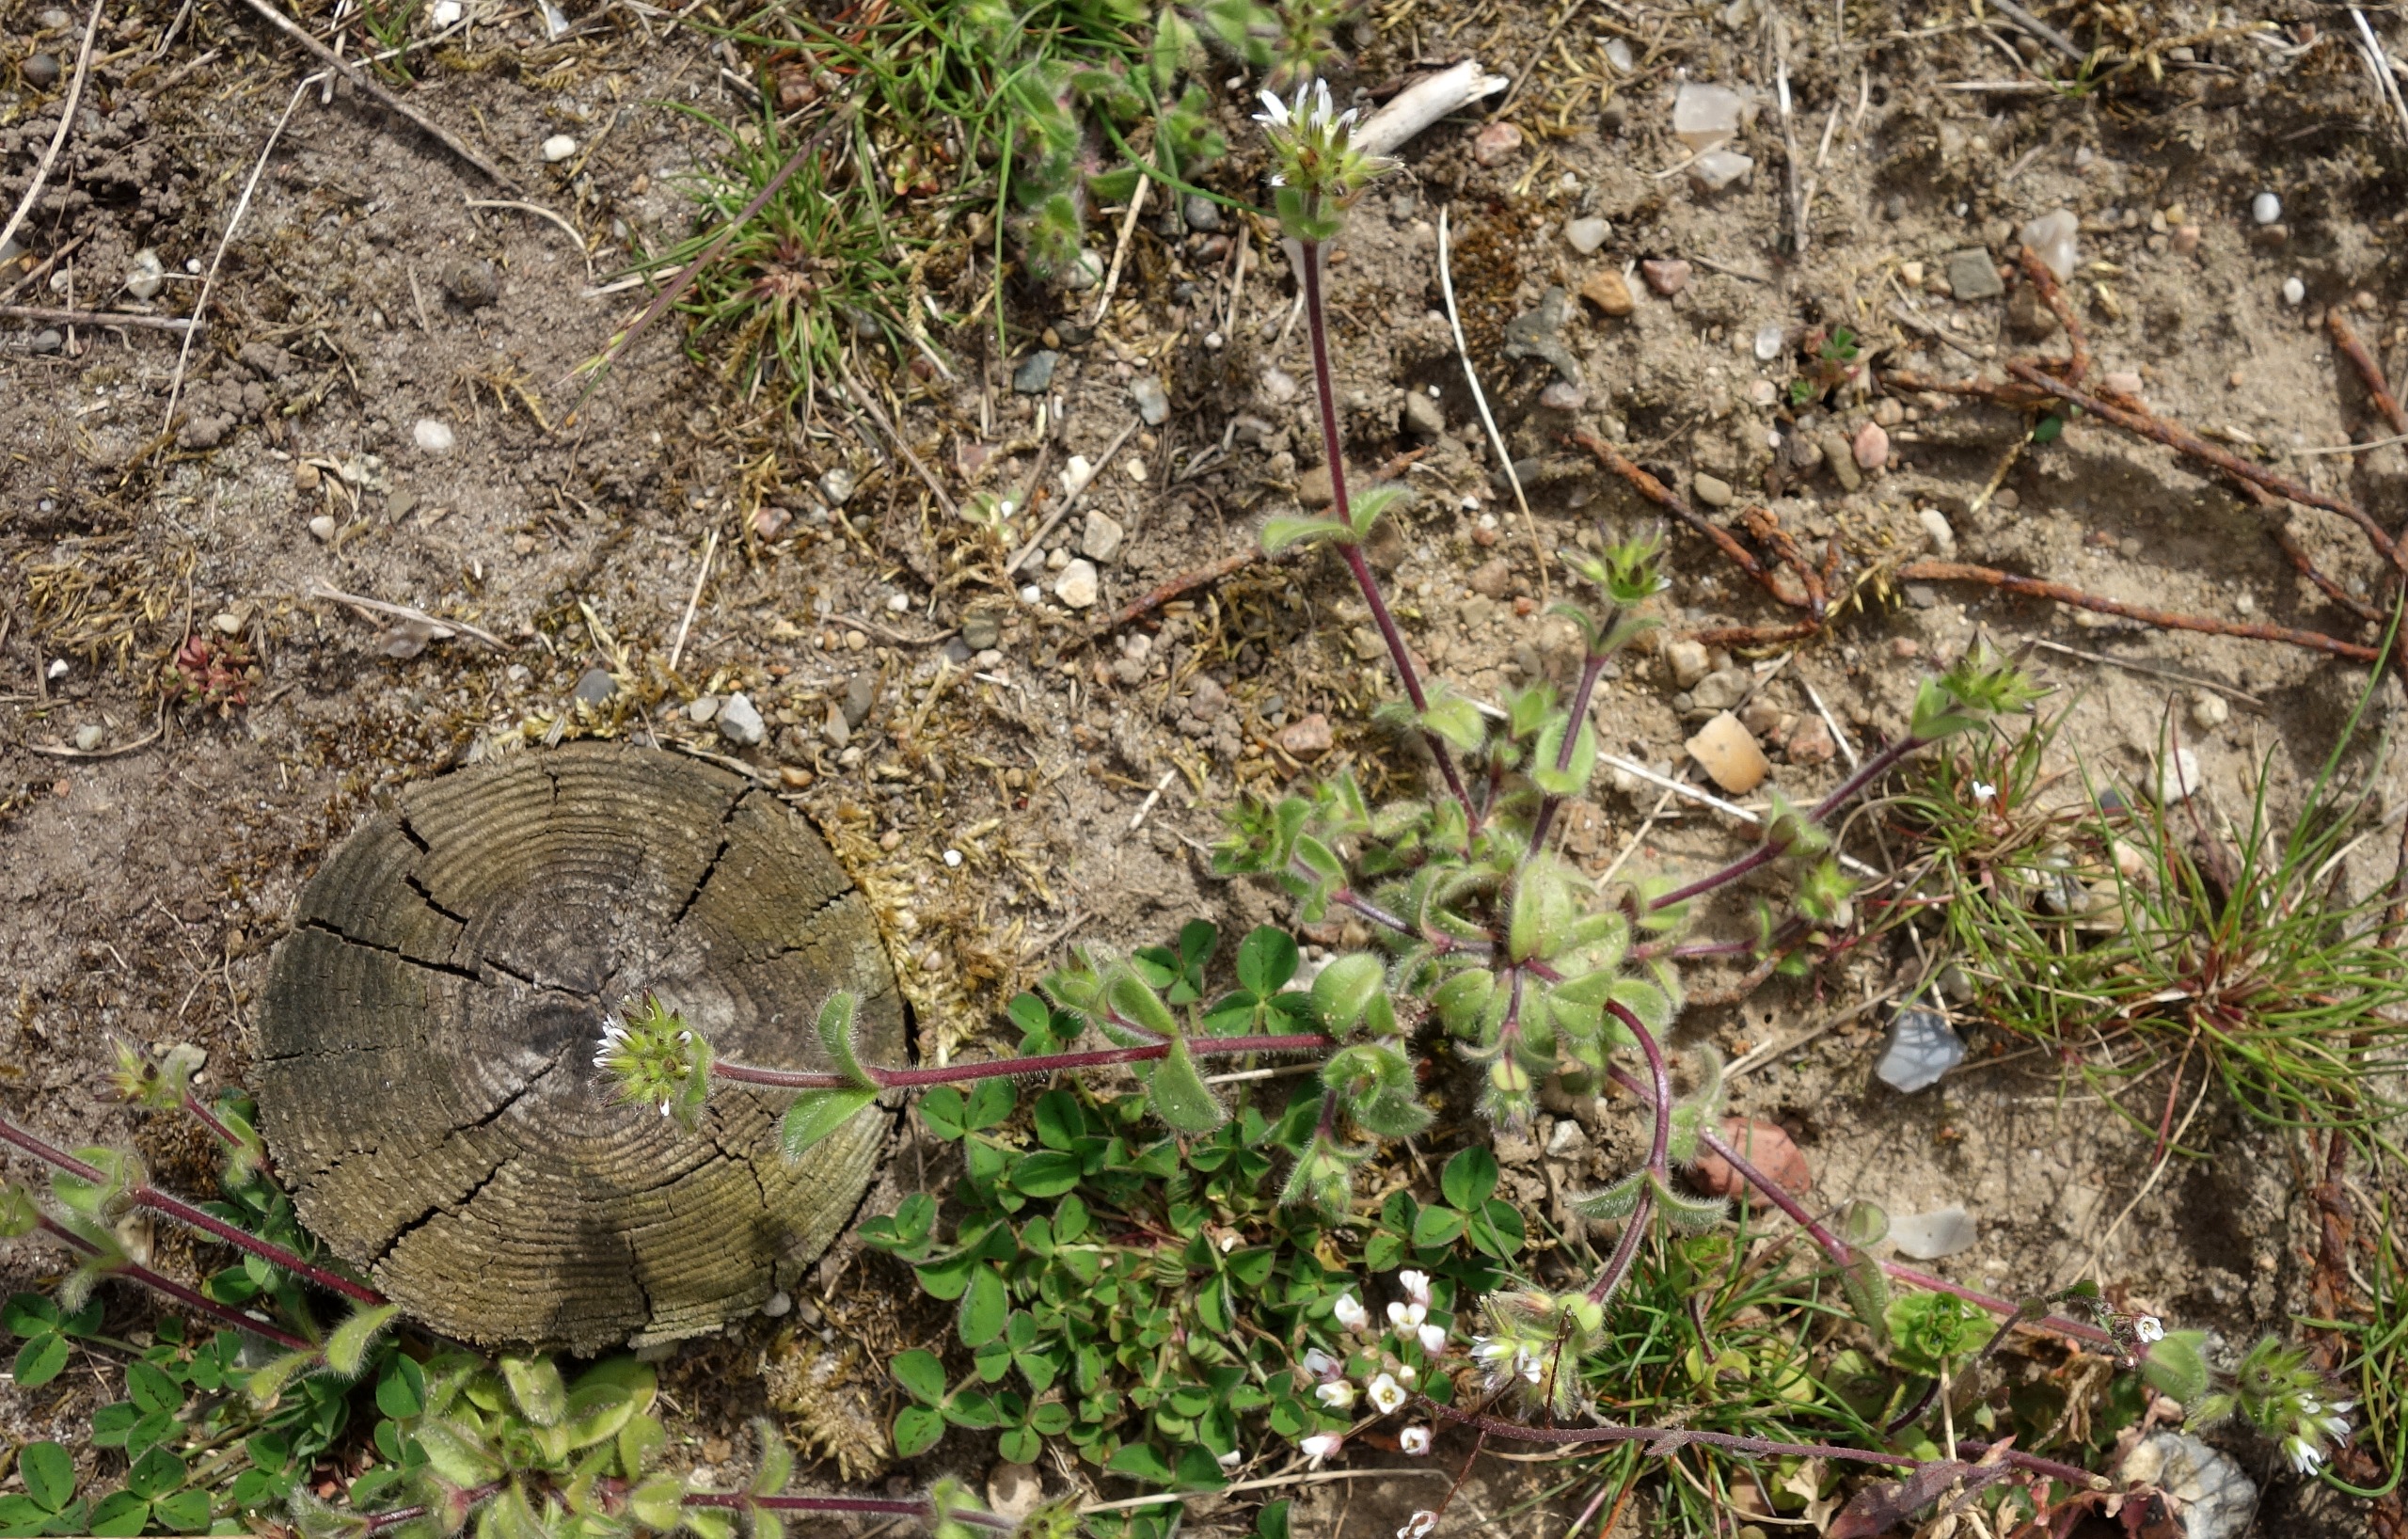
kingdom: Plantae
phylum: Tracheophyta
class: Magnoliopsida
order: Caryophyllales
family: Caryophyllaceae
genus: Cerastium
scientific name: Cerastium glomeratum
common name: Opret hønsetarm
